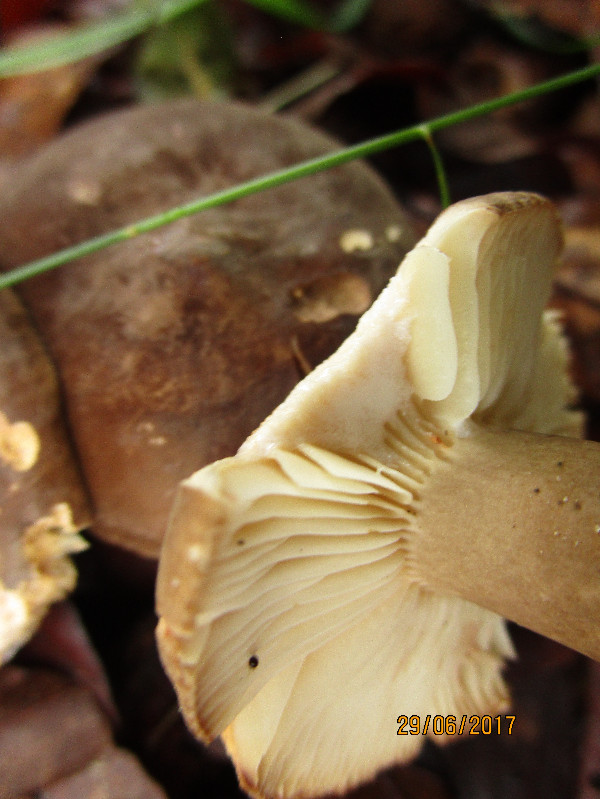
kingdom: Fungi
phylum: Basidiomycota
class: Agaricomycetes
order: Russulales
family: Russulaceae
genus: Lactarius
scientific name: Lactarius romagnesii
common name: fjernbladet mælkehat
